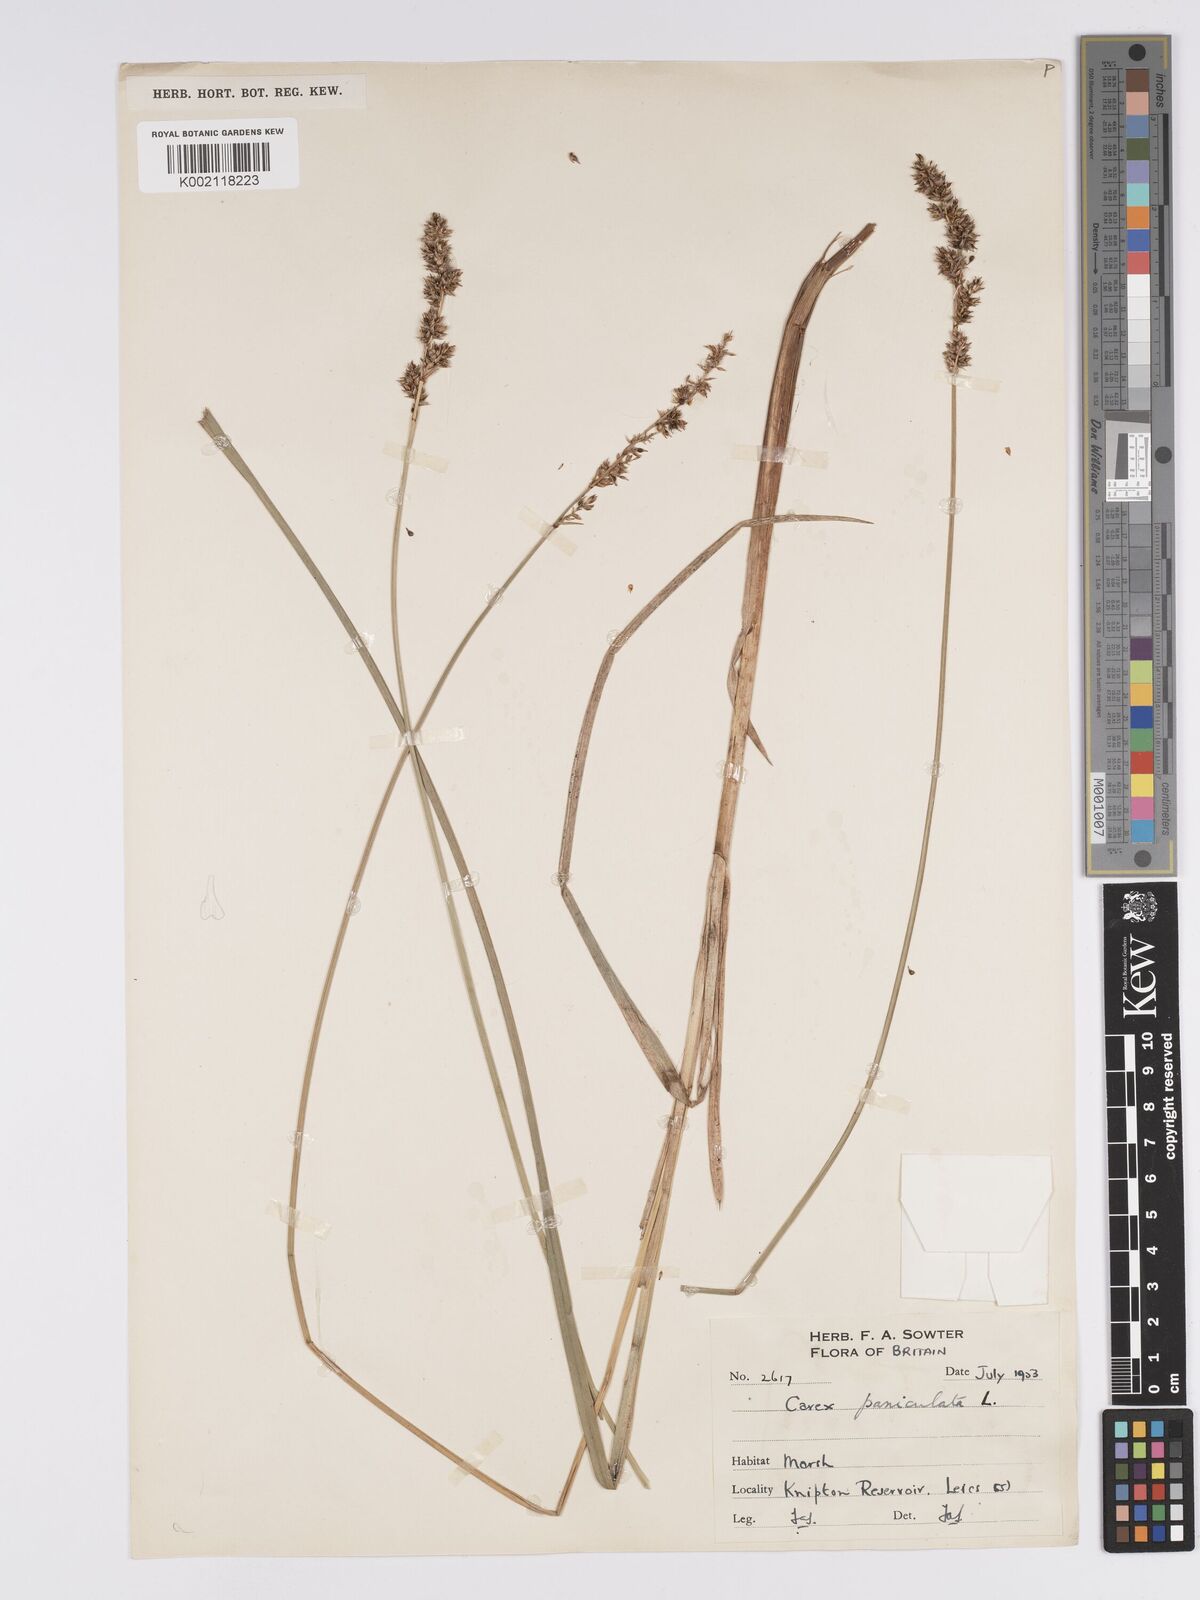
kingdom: Plantae
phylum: Tracheophyta
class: Liliopsida
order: Poales
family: Cyperaceae
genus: Carex
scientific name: Carex paniculata
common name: Greater tussock-sedge
